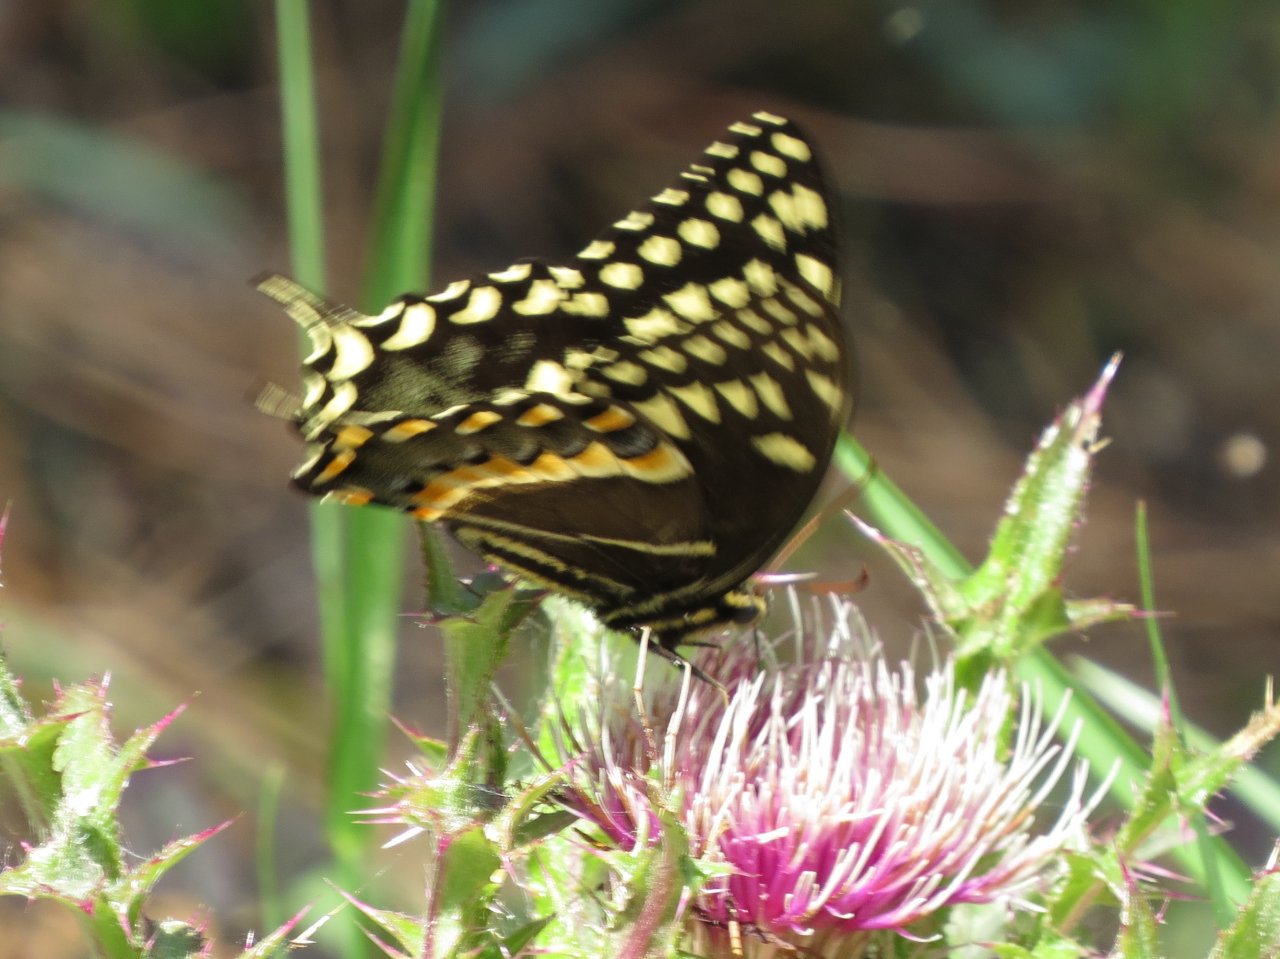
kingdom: Animalia
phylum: Arthropoda
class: Insecta
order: Lepidoptera
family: Papilionidae
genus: Pterourus
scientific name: Pterourus palamedes
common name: Palamedes Swallowtail
